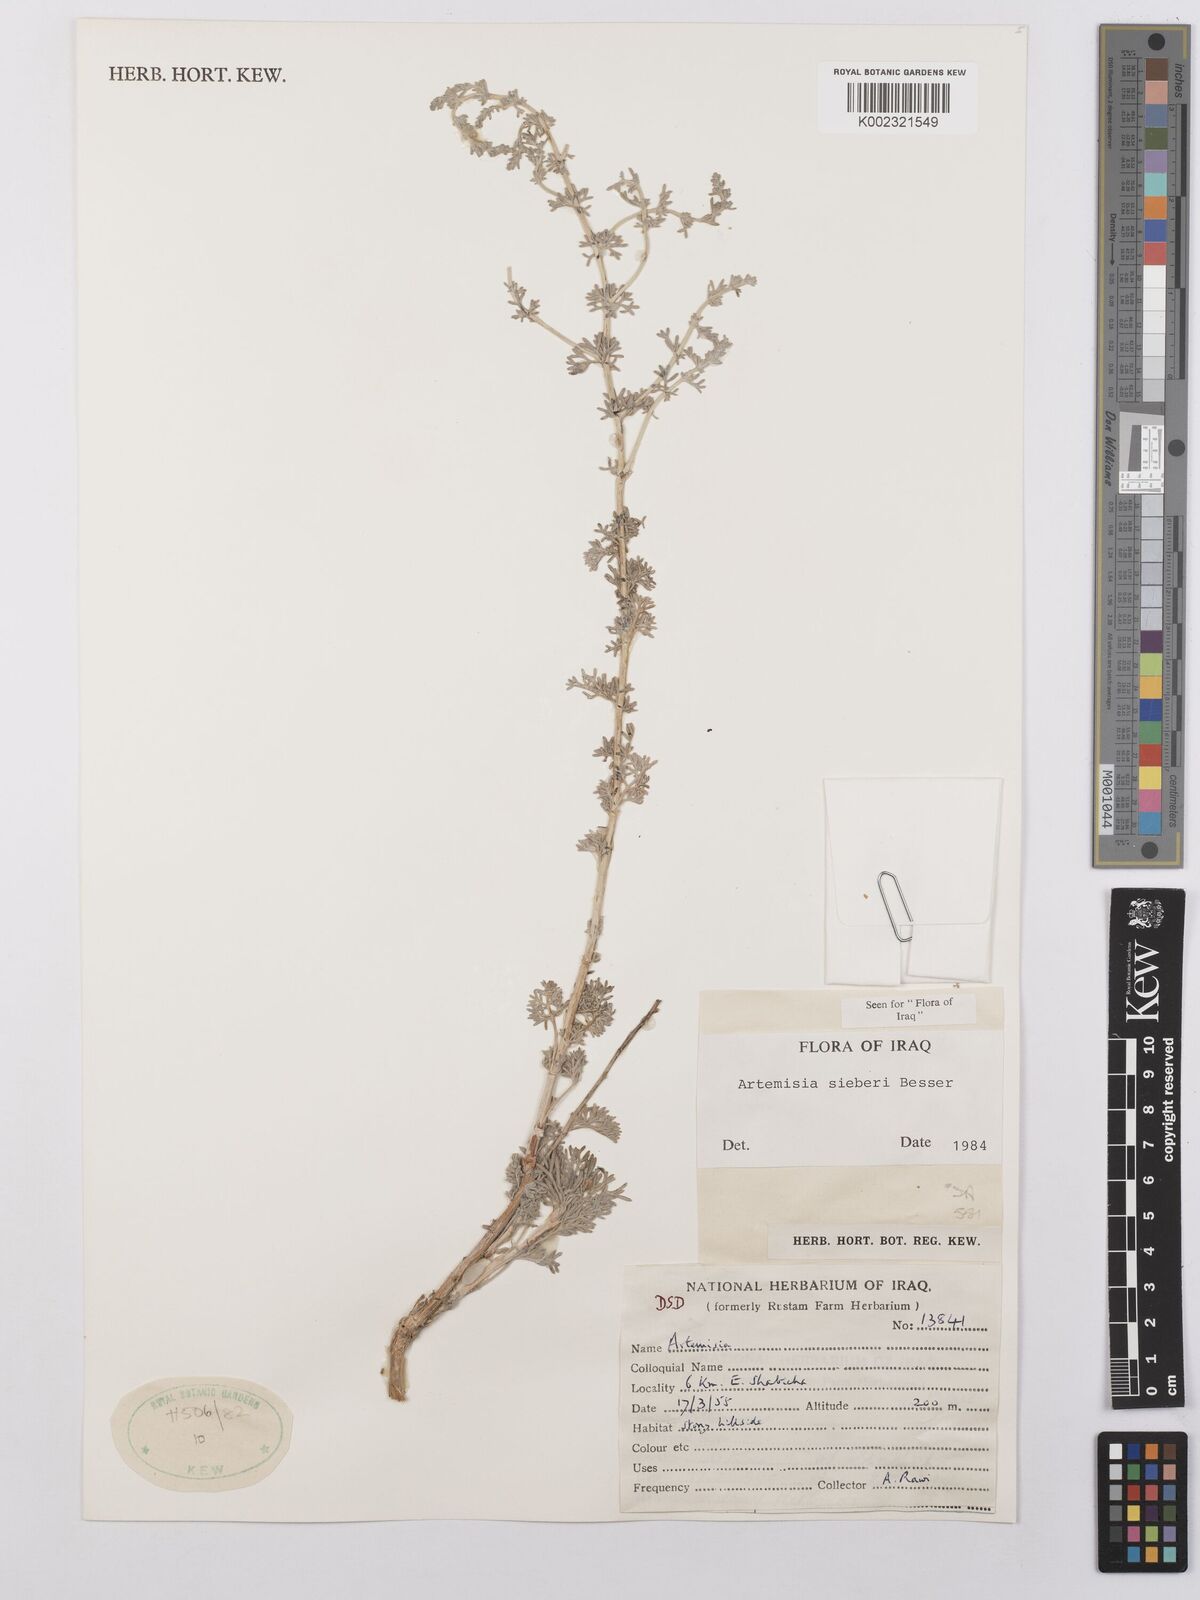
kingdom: Plantae
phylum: Tracheophyta
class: Magnoliopsida
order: Asterales
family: Asteraceae
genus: Artemisia
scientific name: Artemisia sieberi
